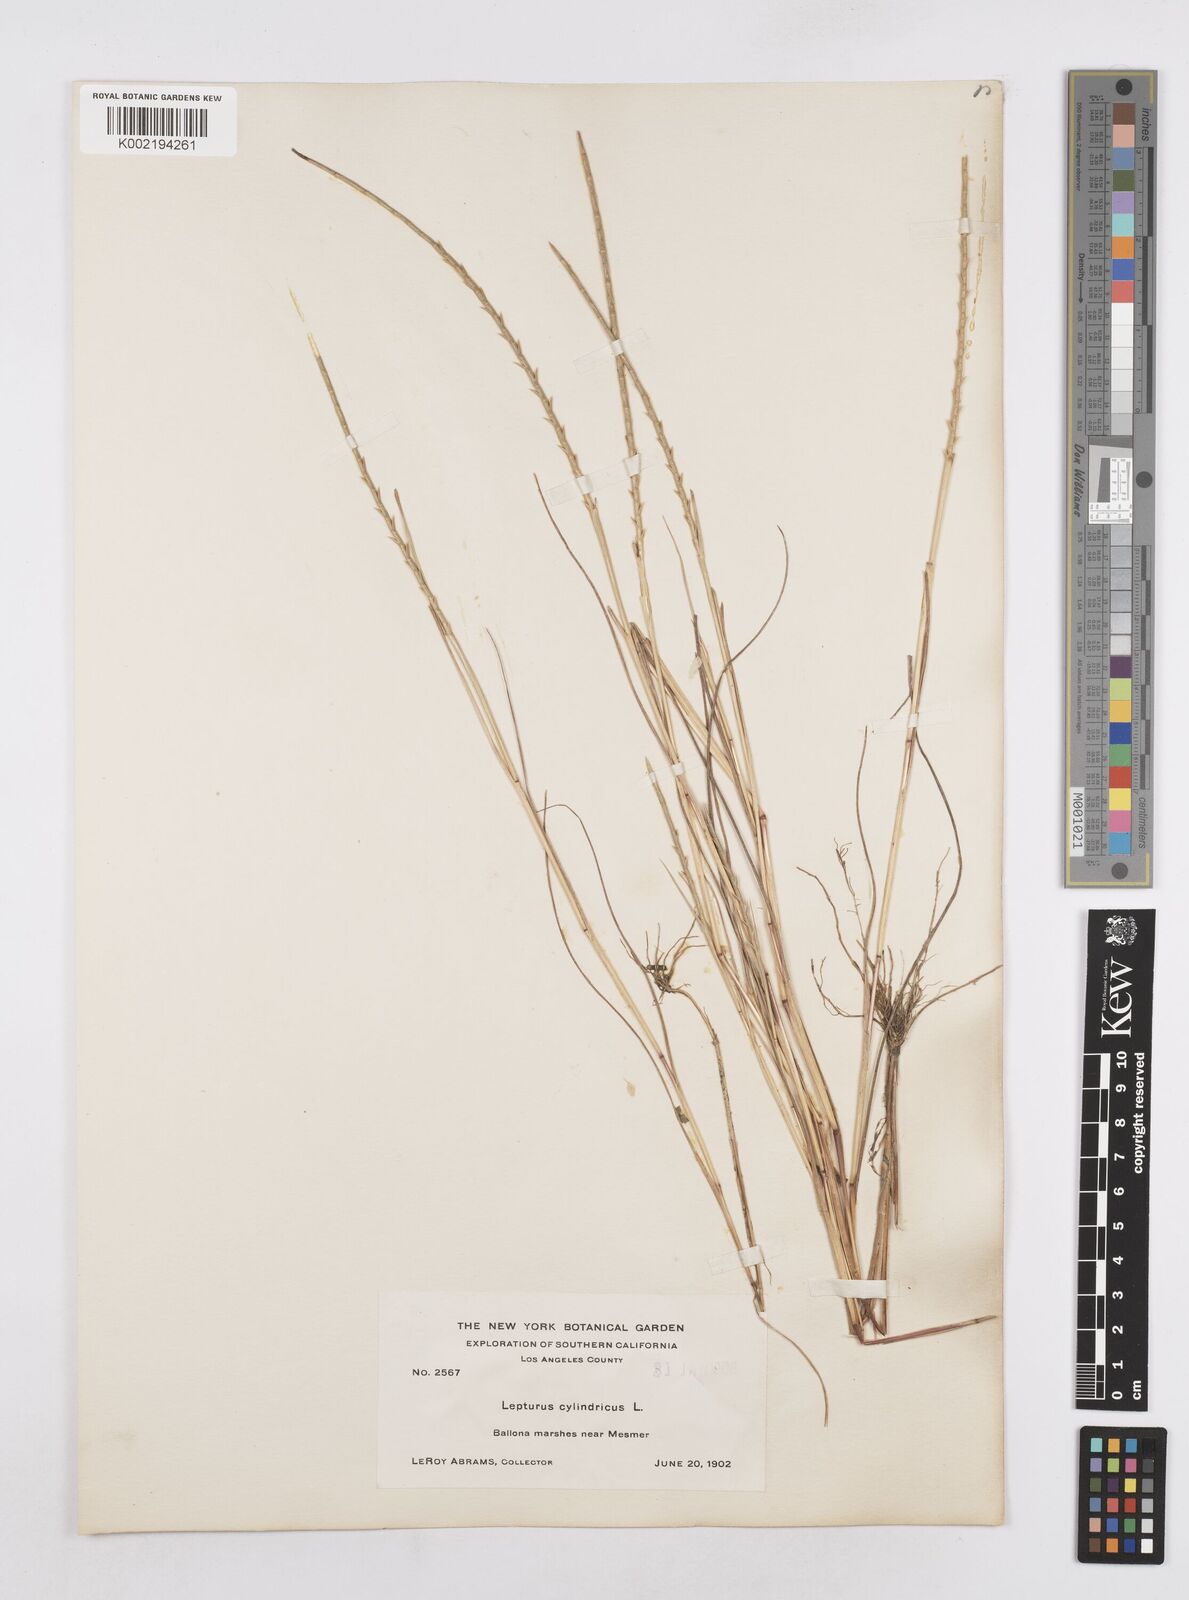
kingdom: Plantae
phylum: Tracheophyta
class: Liliopsida
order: Poales
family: Poaceae
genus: Parapholis
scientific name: Parapholis cylindrica
